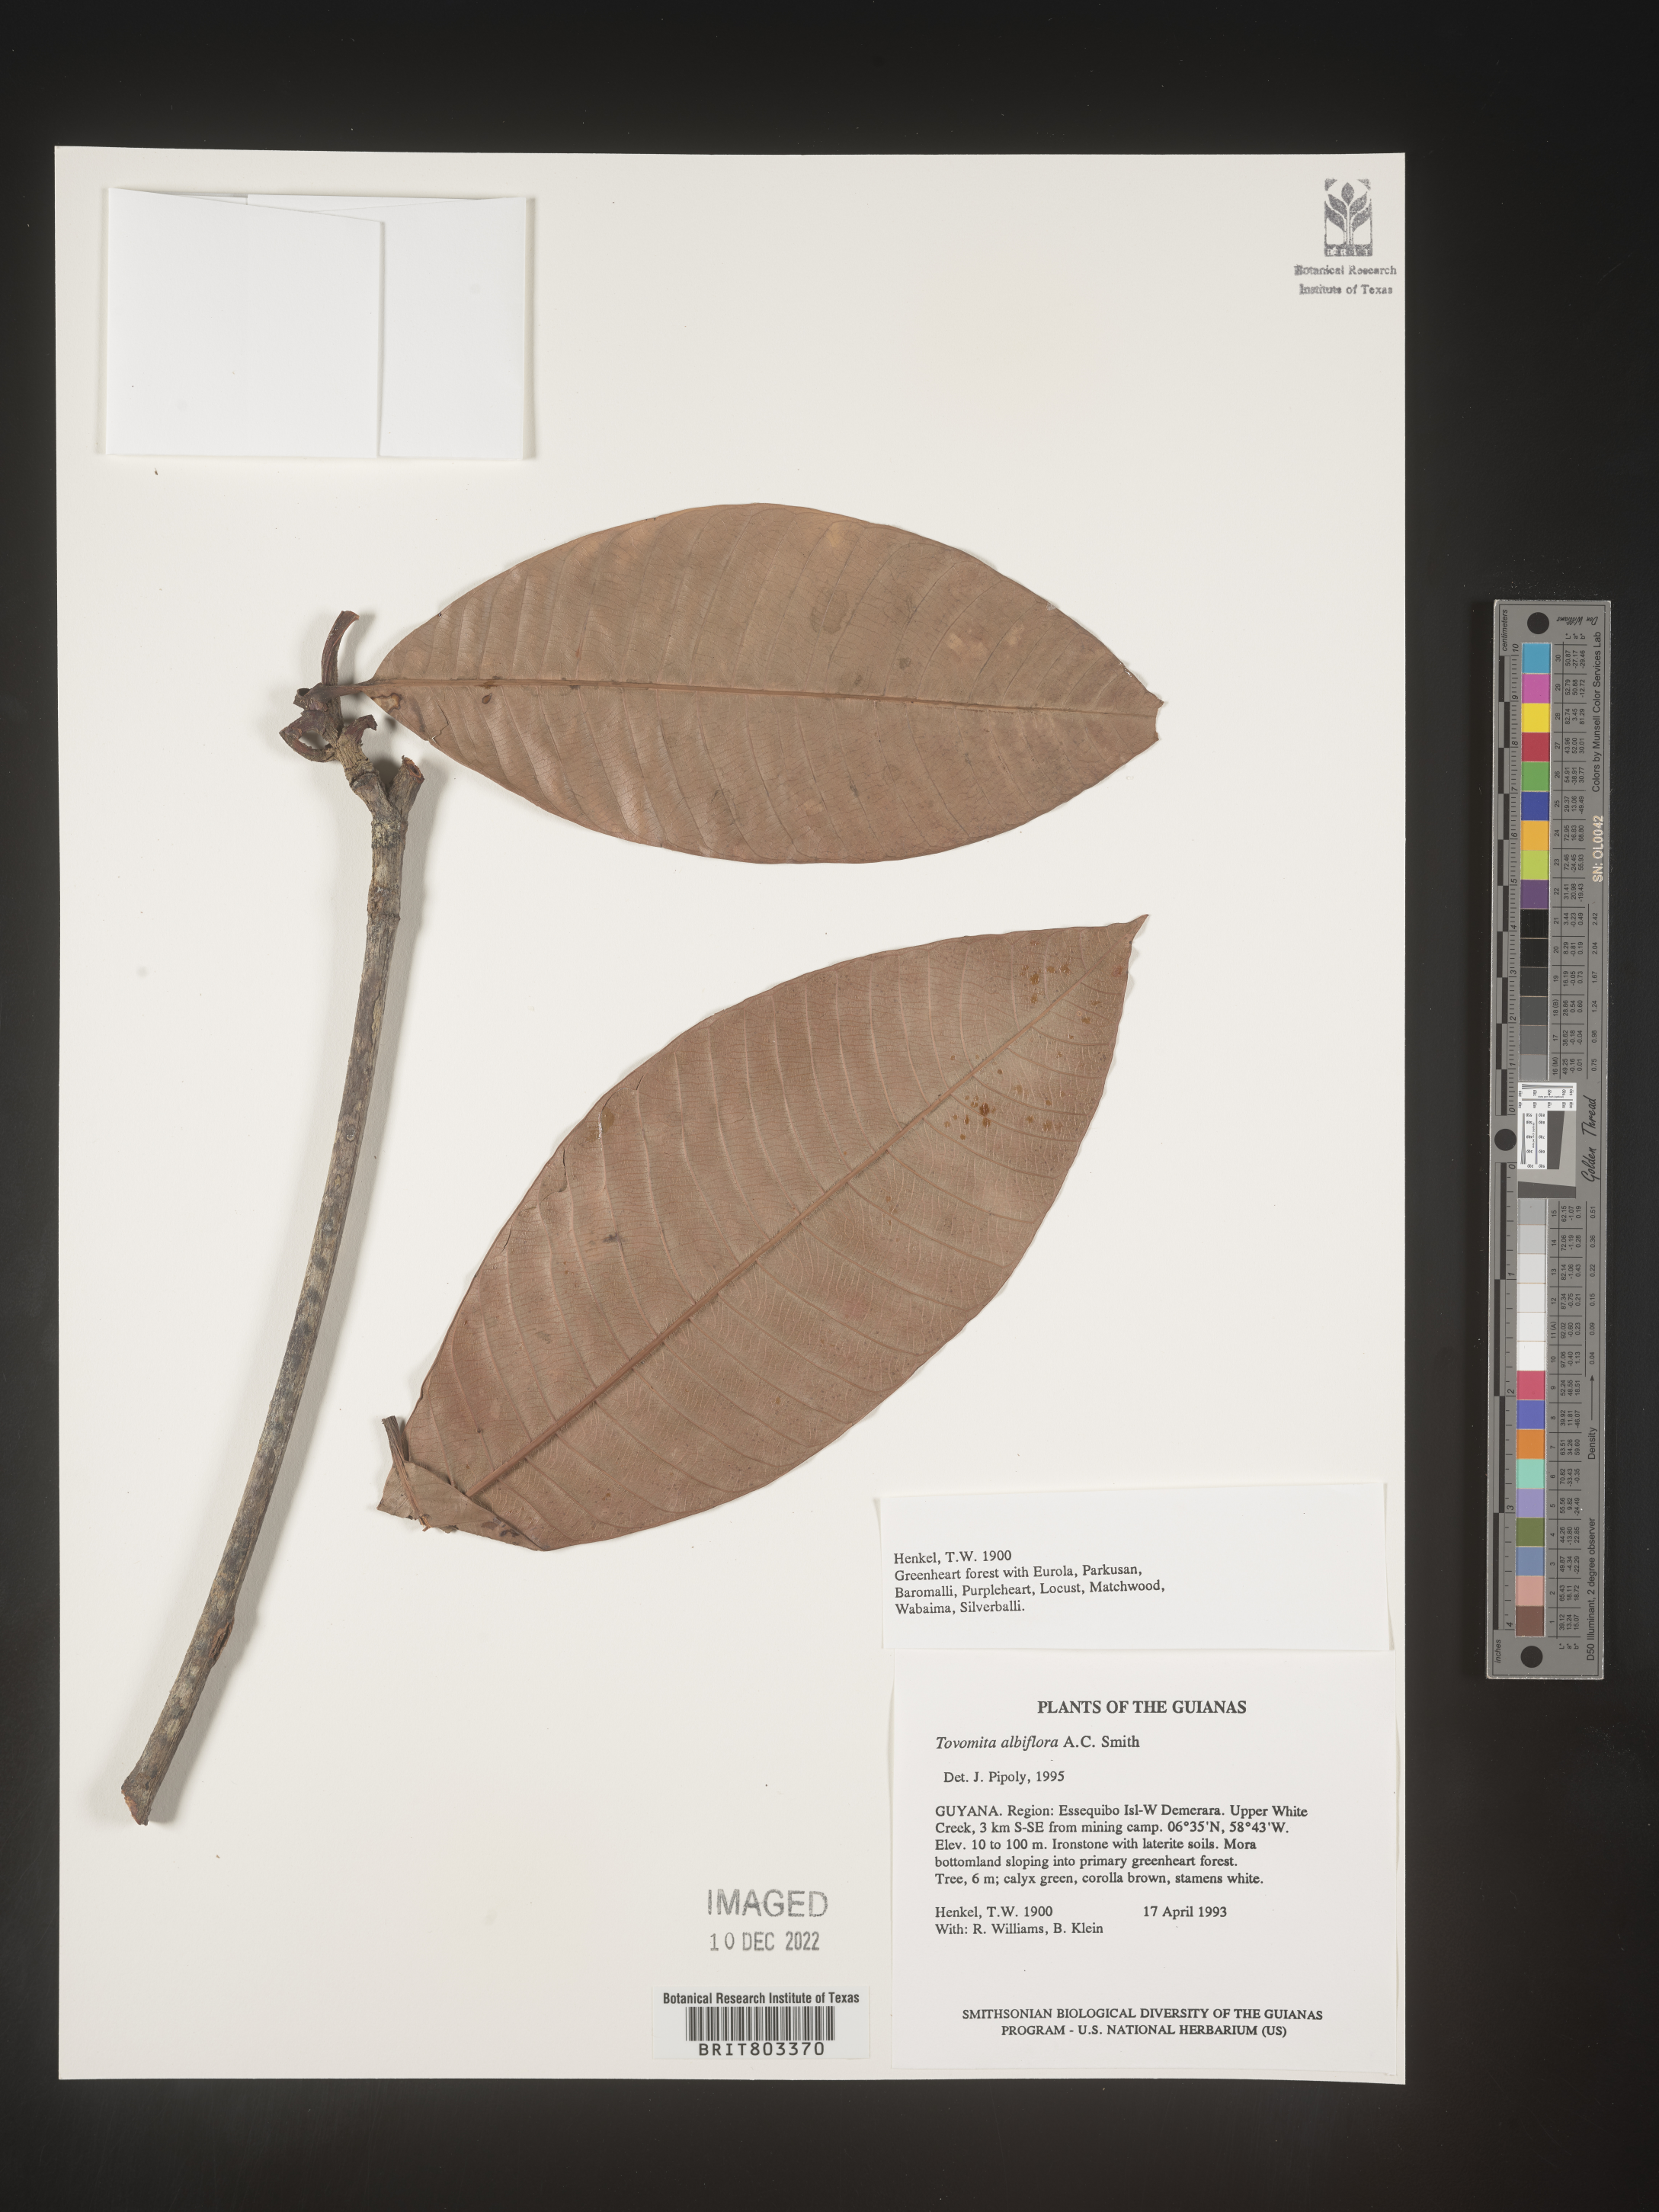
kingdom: Plantae
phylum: Tracheophyta
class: Magnoliopsida
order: Malpighiales
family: Clusiaceae
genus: Tovomita
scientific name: Tovomita
